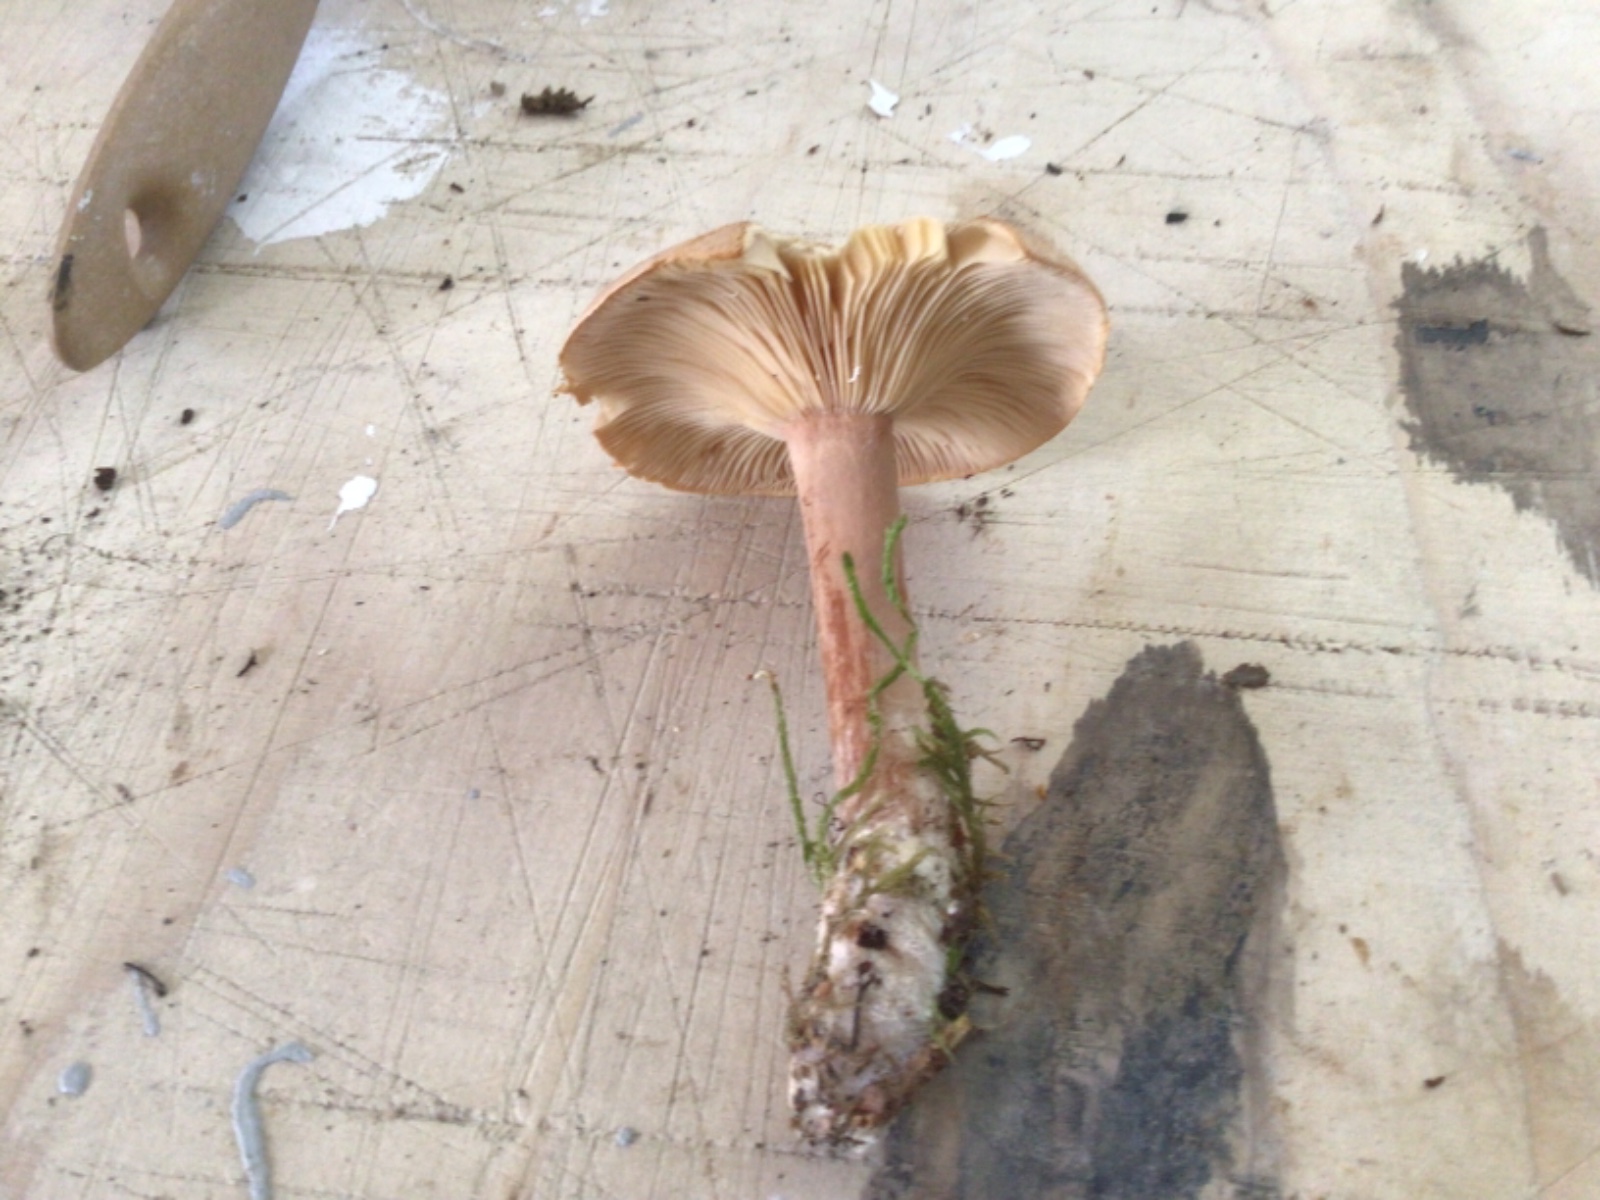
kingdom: Fungi
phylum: Basidiomycota
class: Agaricomycetes
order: Russulales
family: Russulaceae
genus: Lactarius
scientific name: Lactarius helvus
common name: mose-mælkehat
